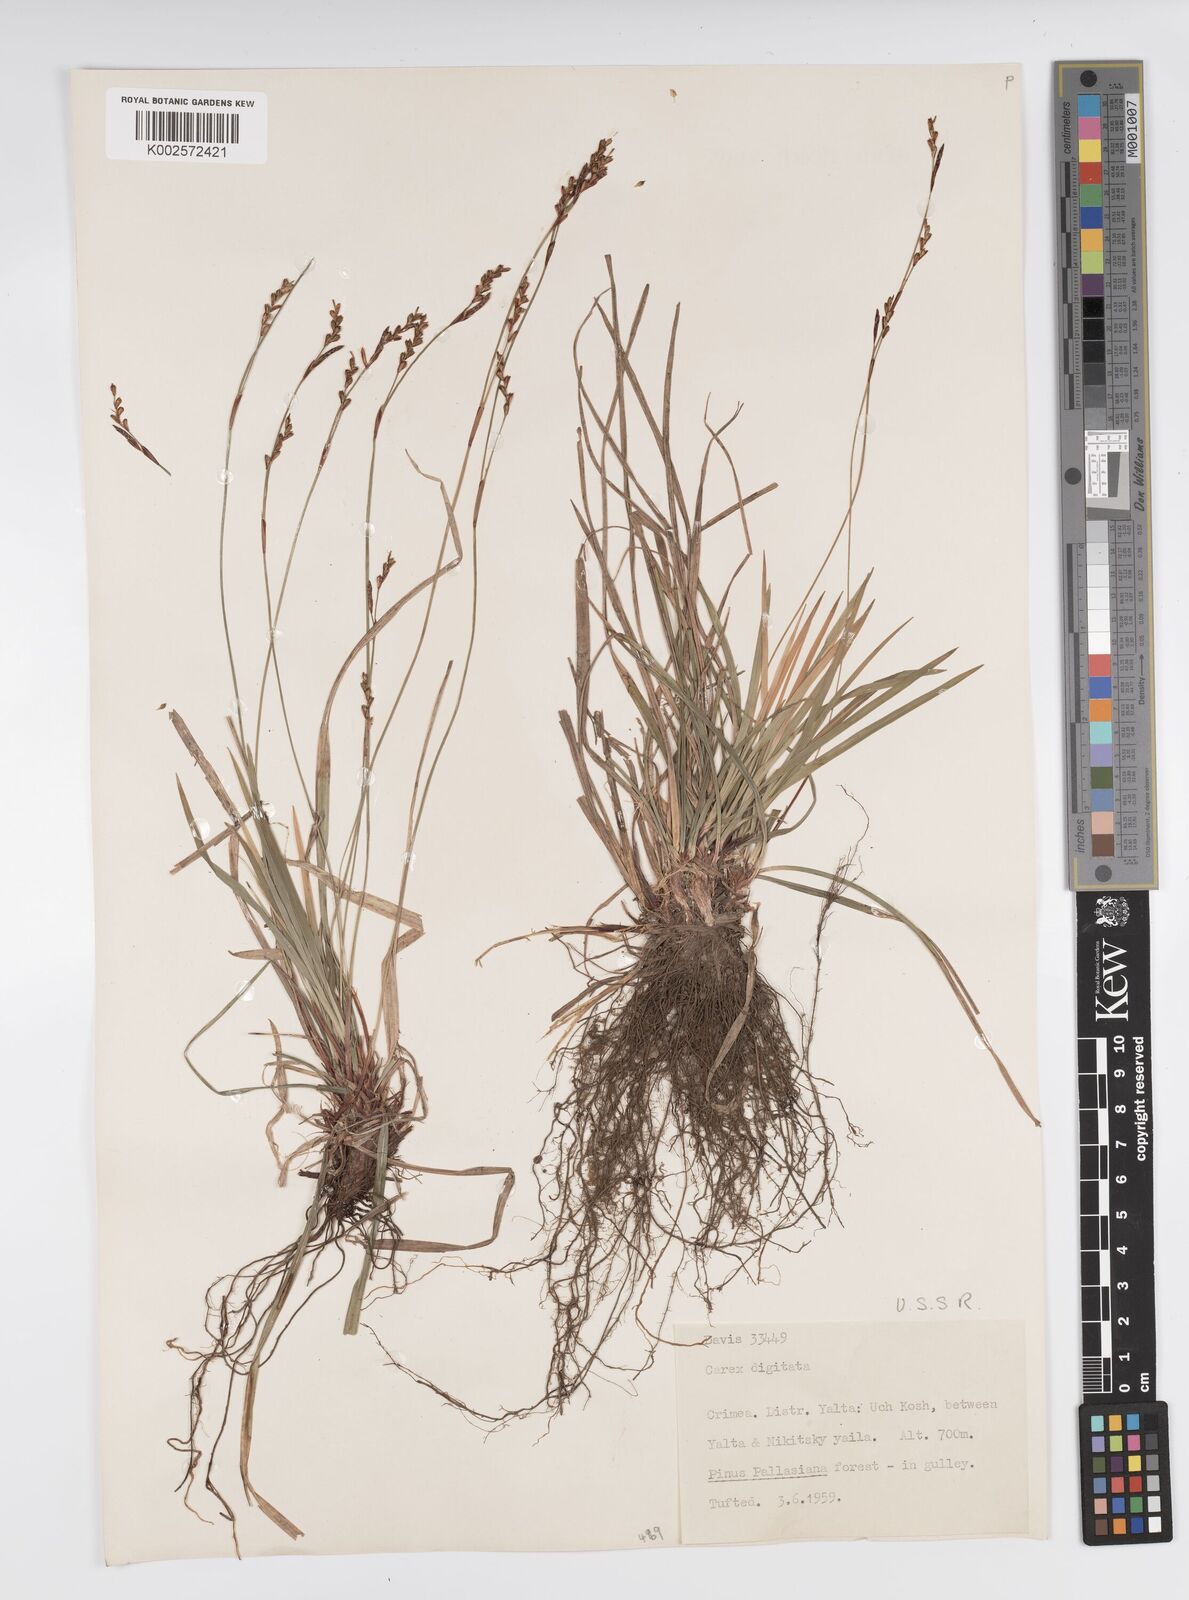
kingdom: Plantae
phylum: Tracheophyta
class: Liliopsida
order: Poales
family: Cyperaceae
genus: Carex
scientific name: Carex digitata
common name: Fingered sedge
